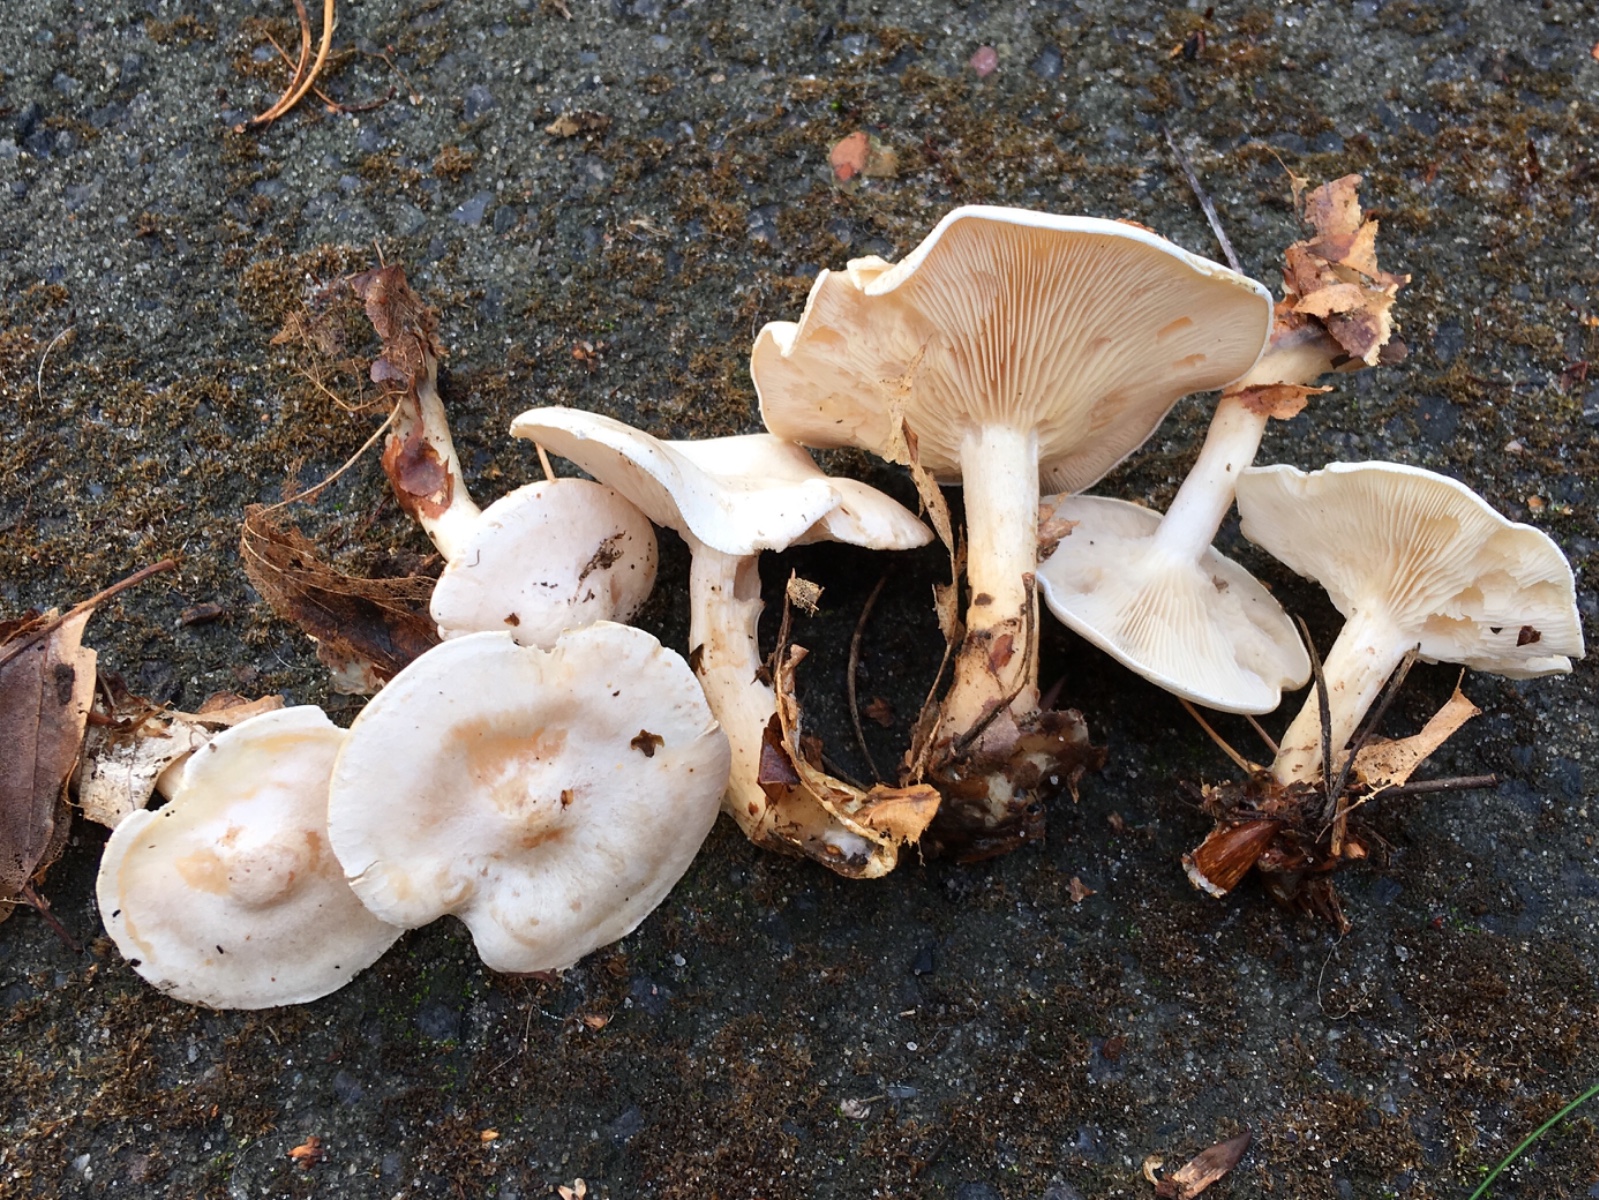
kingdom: Fungi
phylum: Basidiomycota
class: Agaricomycetes
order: Agaricales
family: Tricholomataceae
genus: Clitocybe
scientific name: Clitocybe phyllophila
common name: løv-tragthat
